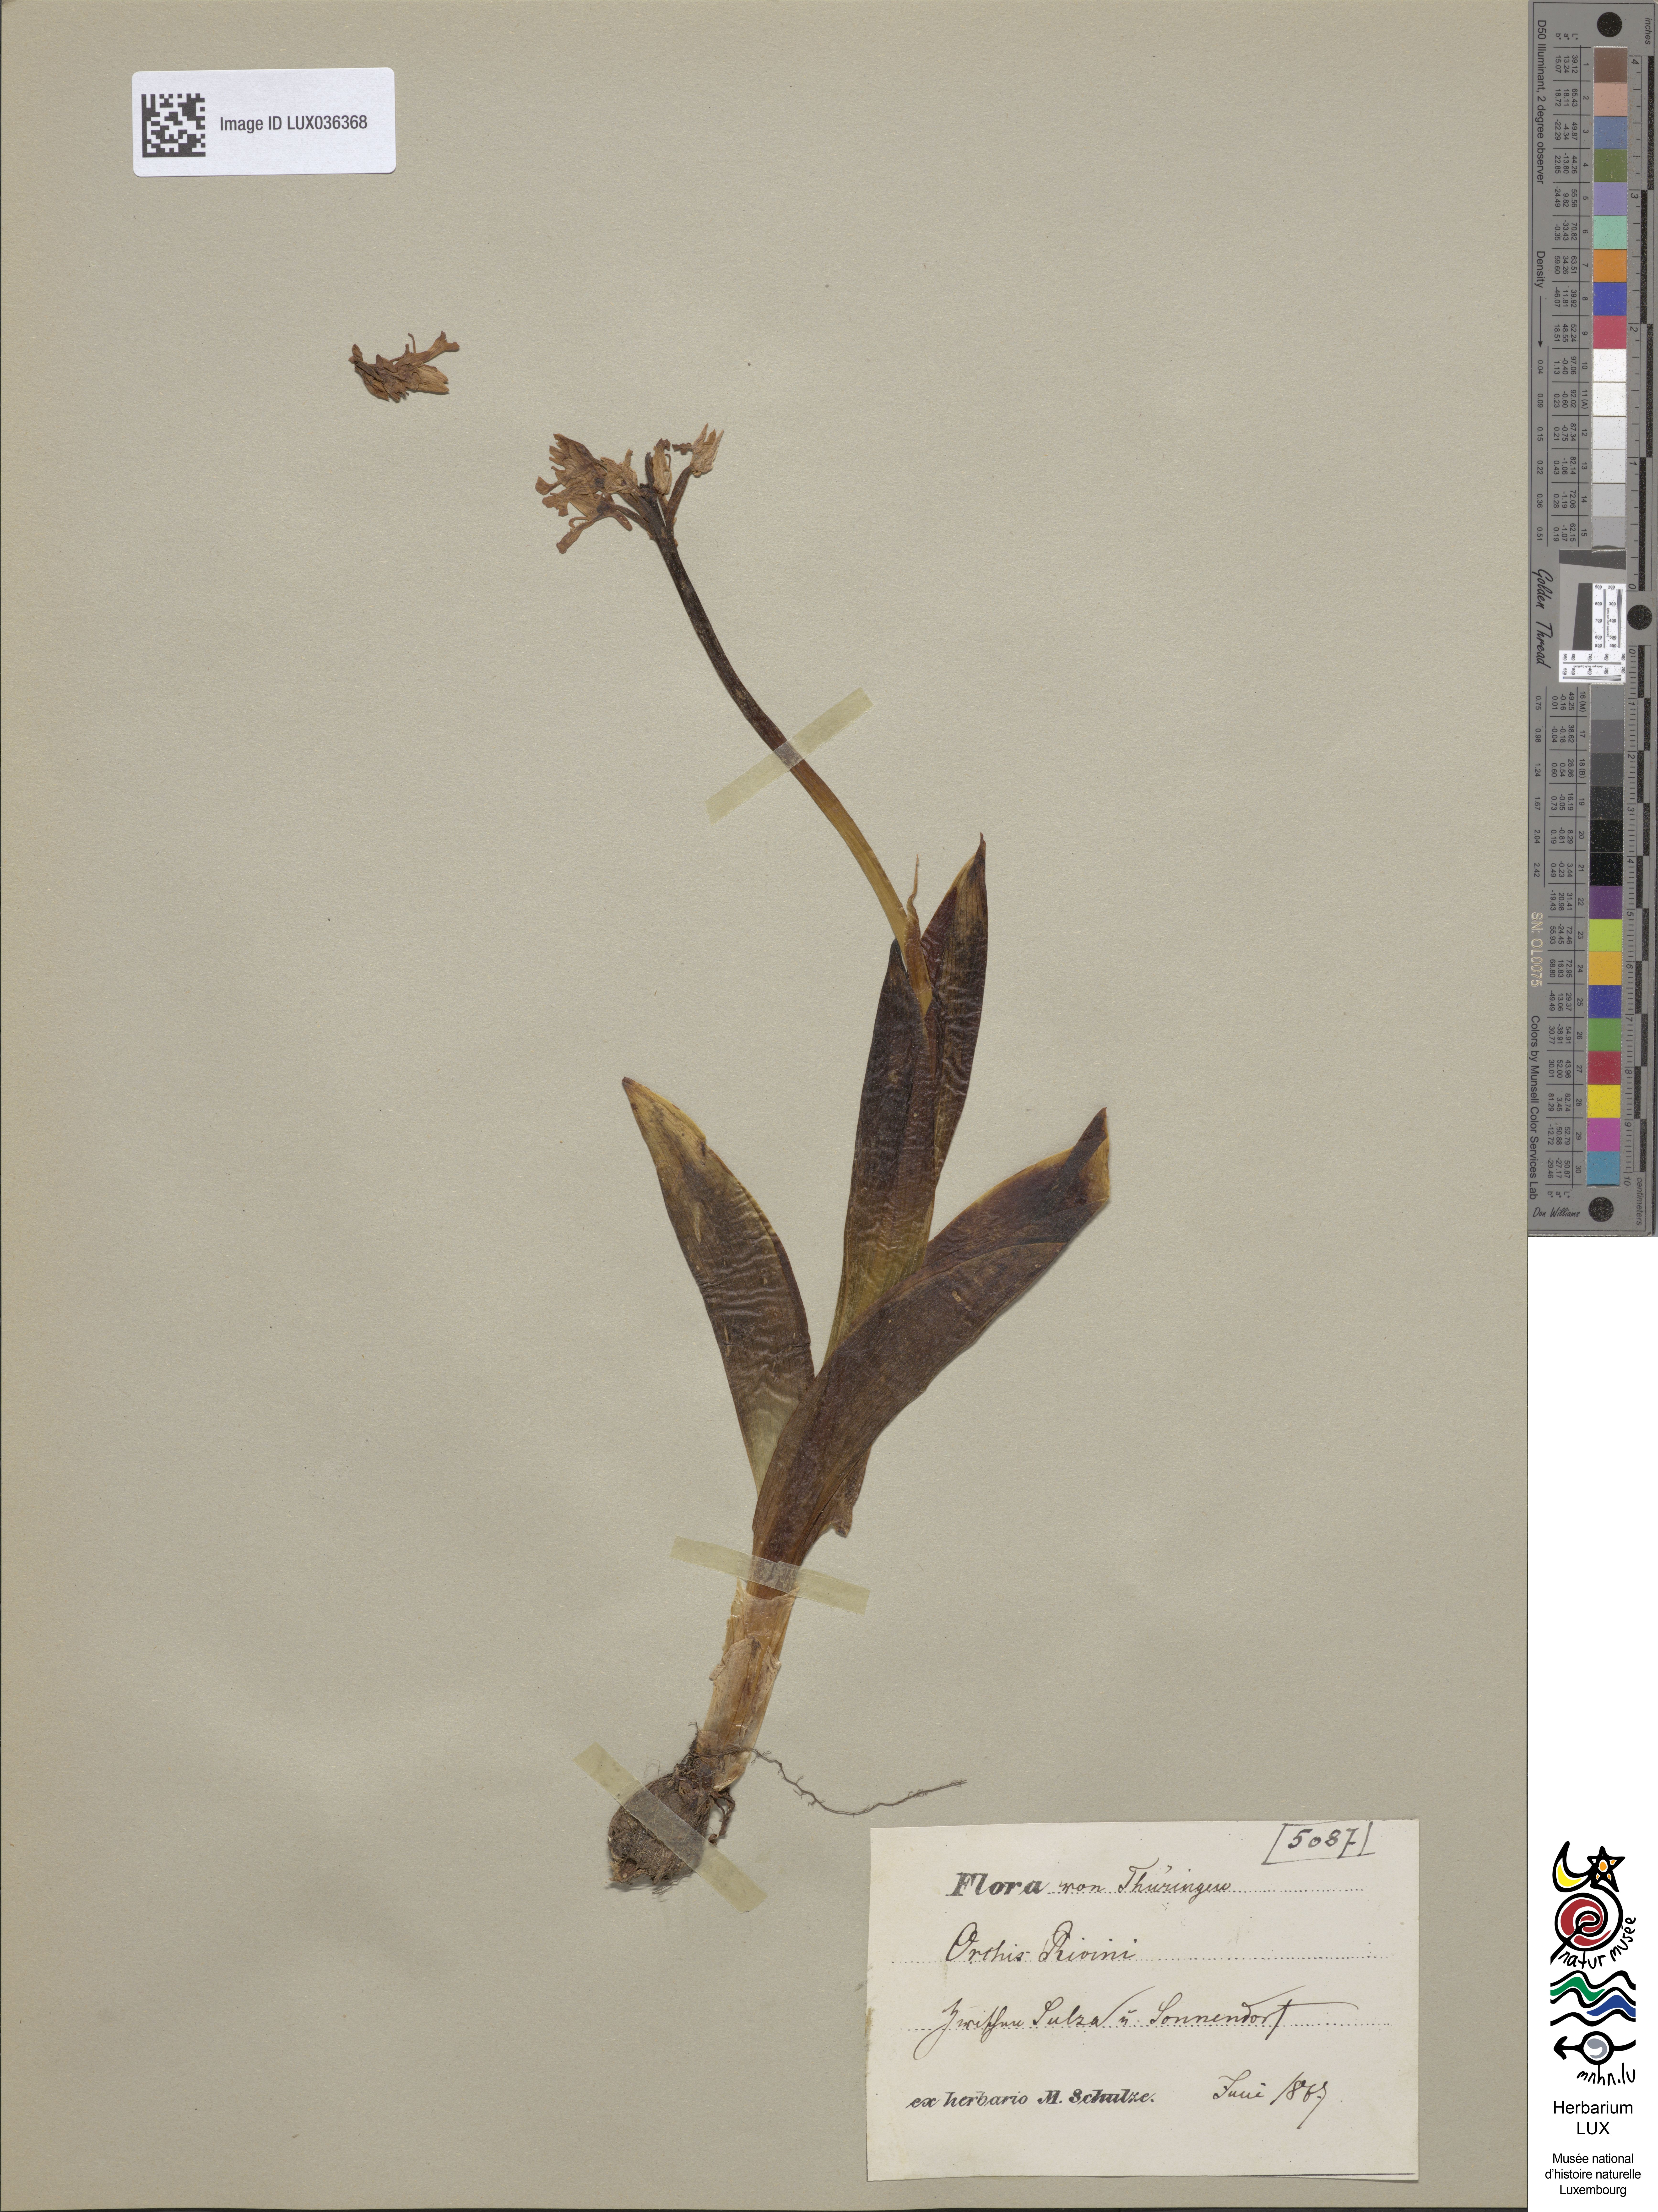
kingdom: Plantae
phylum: Tracheophyta
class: Liliopsida
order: Asparagales
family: Orchidaceae
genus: Orchis
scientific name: Orchis militaris
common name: Military orchid
